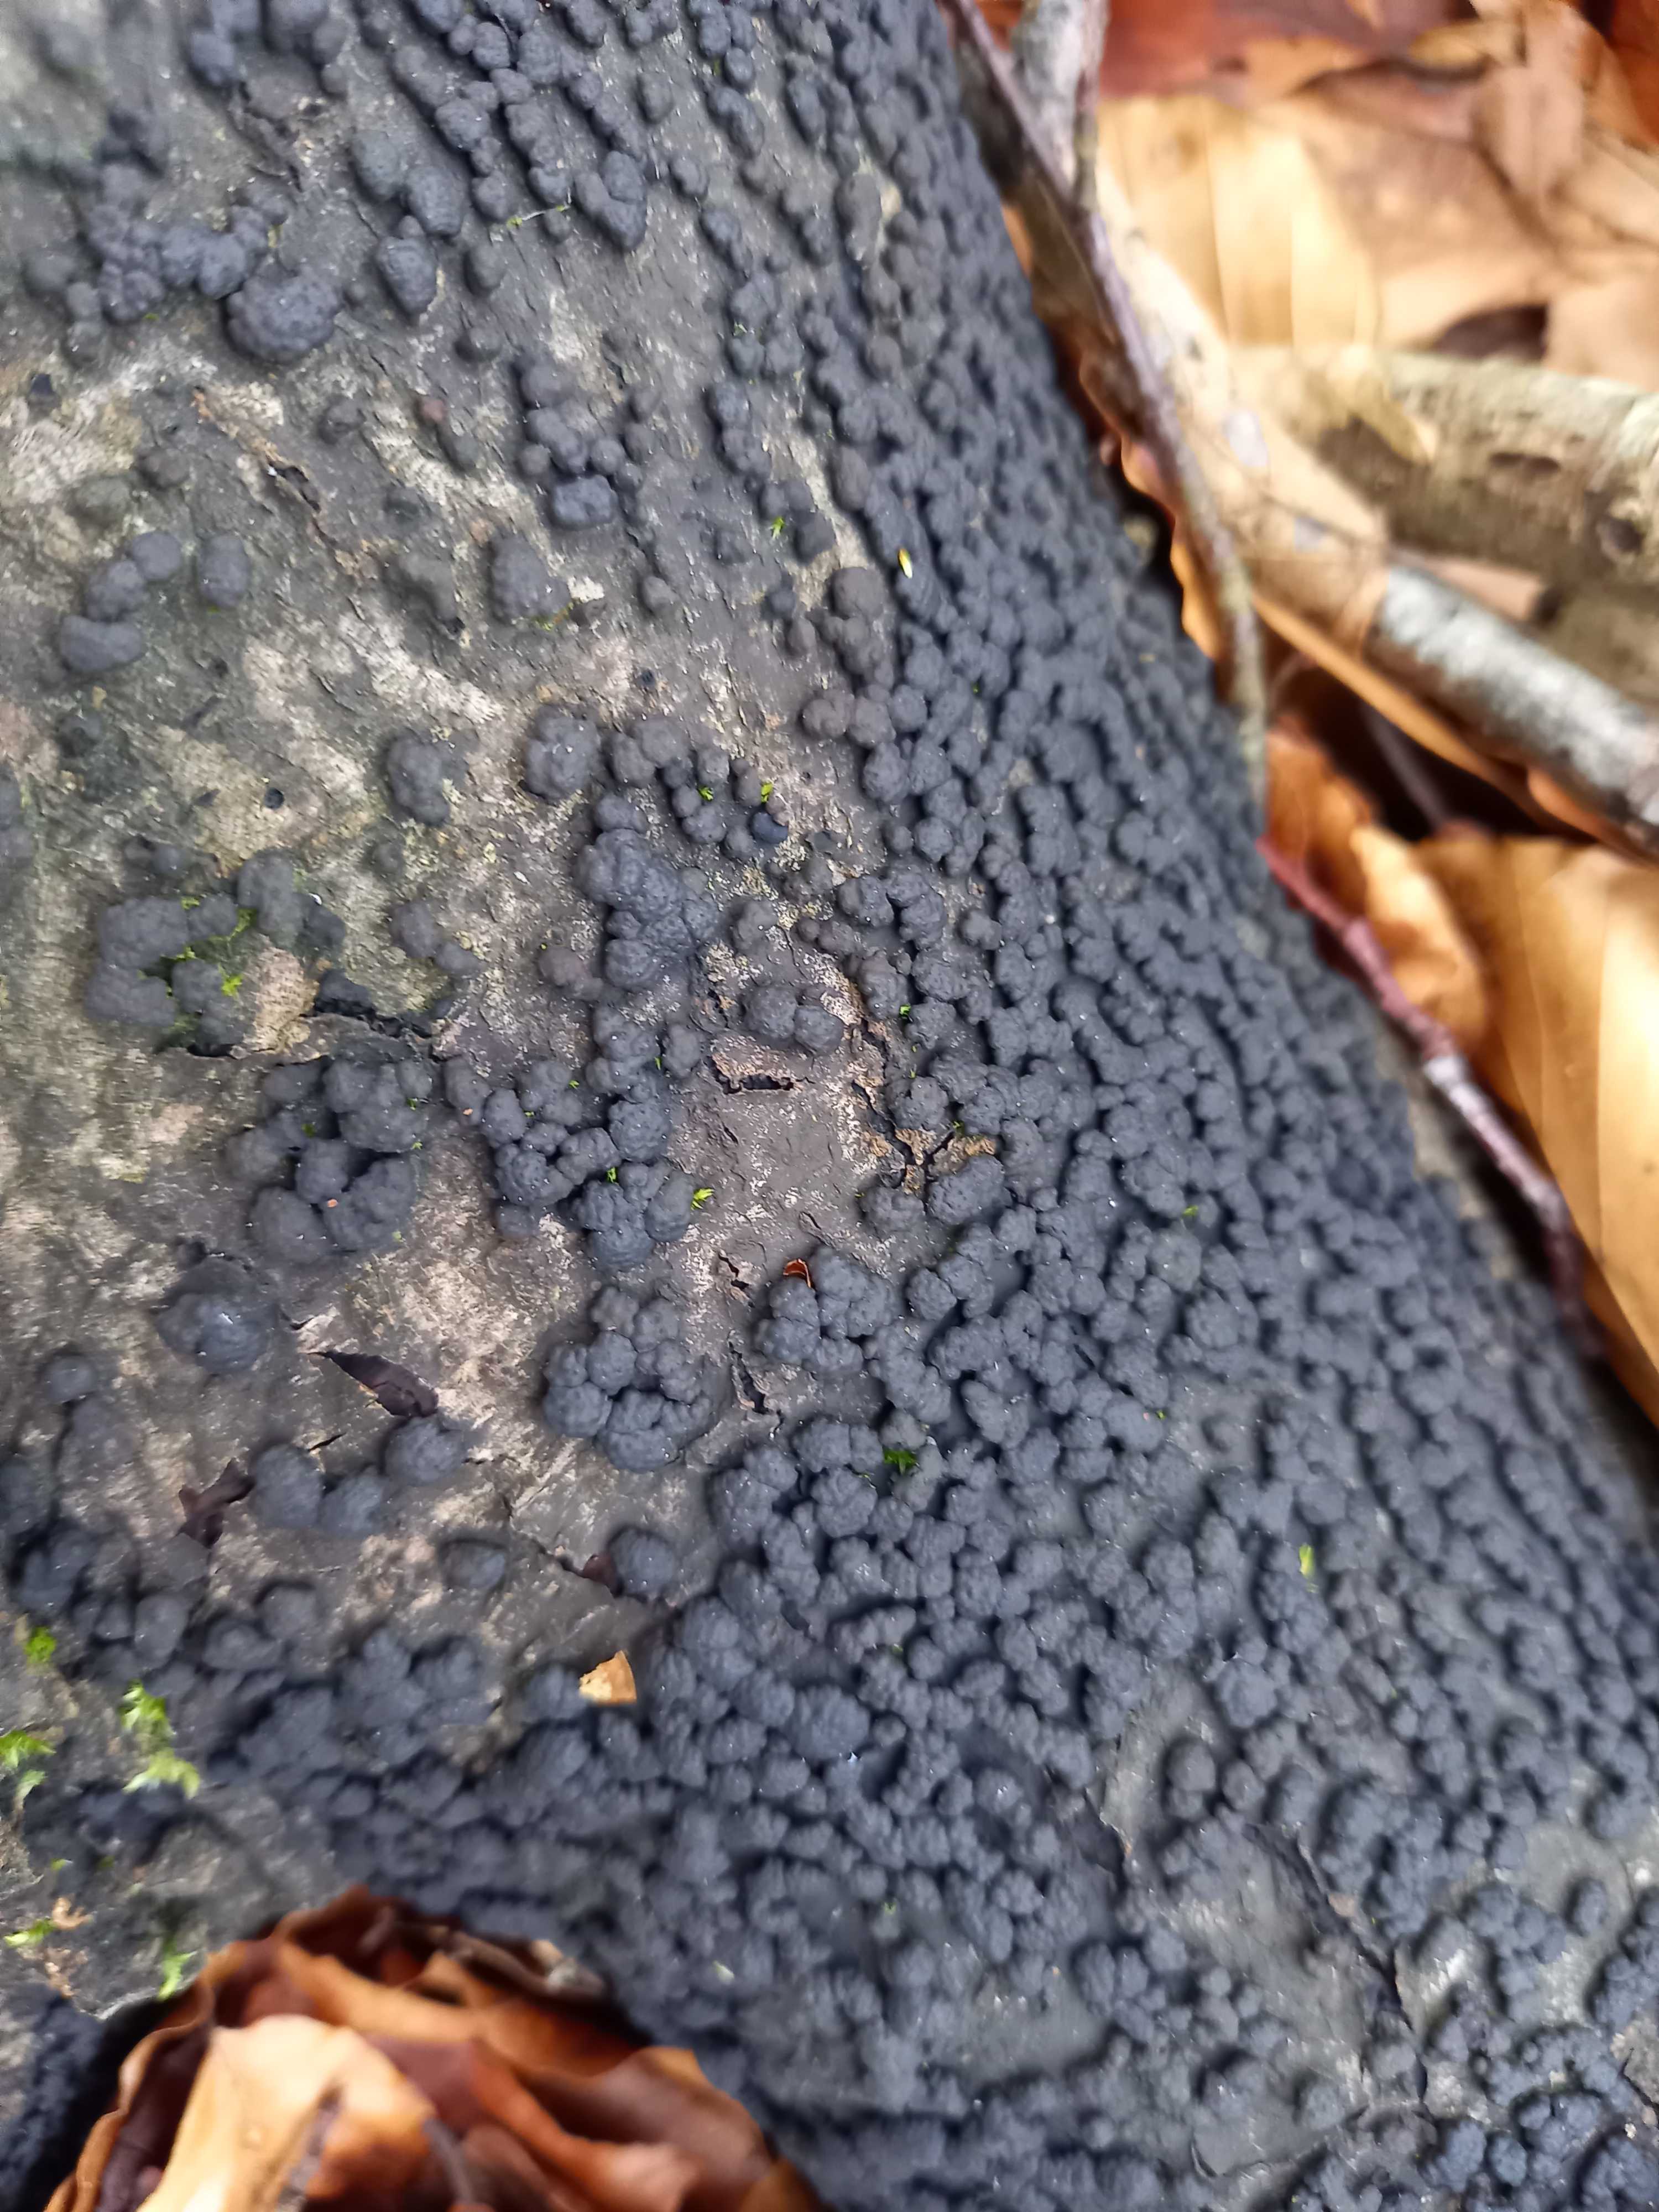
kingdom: Fungi
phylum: Ascomycota
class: Sordariomycetes
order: Xylariales
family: Hypoxylaceae
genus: Jackrogersella
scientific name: Jackrogersella cohaerens
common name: sammenflydende kulbær
